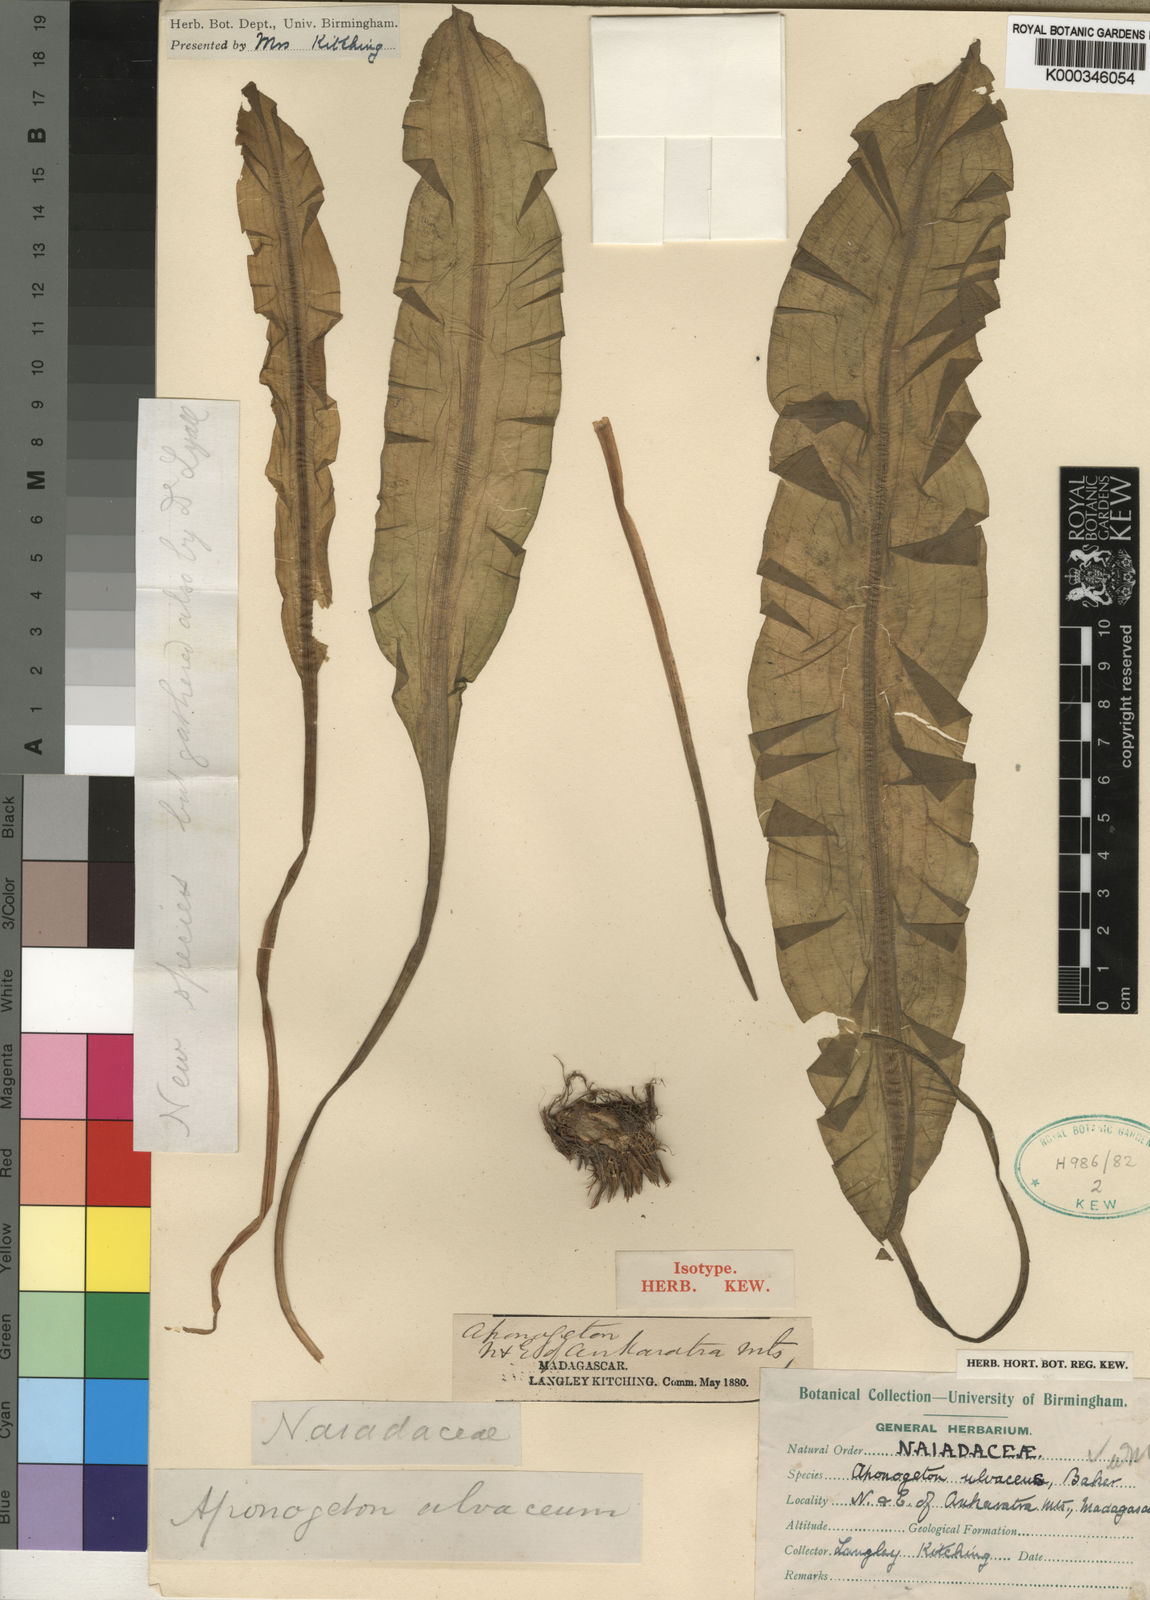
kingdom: Plantae
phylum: Tracheophyta
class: Liliopsida
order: Alismatales
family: Aponogetonaceae
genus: Aponogeton
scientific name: Aponogeton ulvaceus
